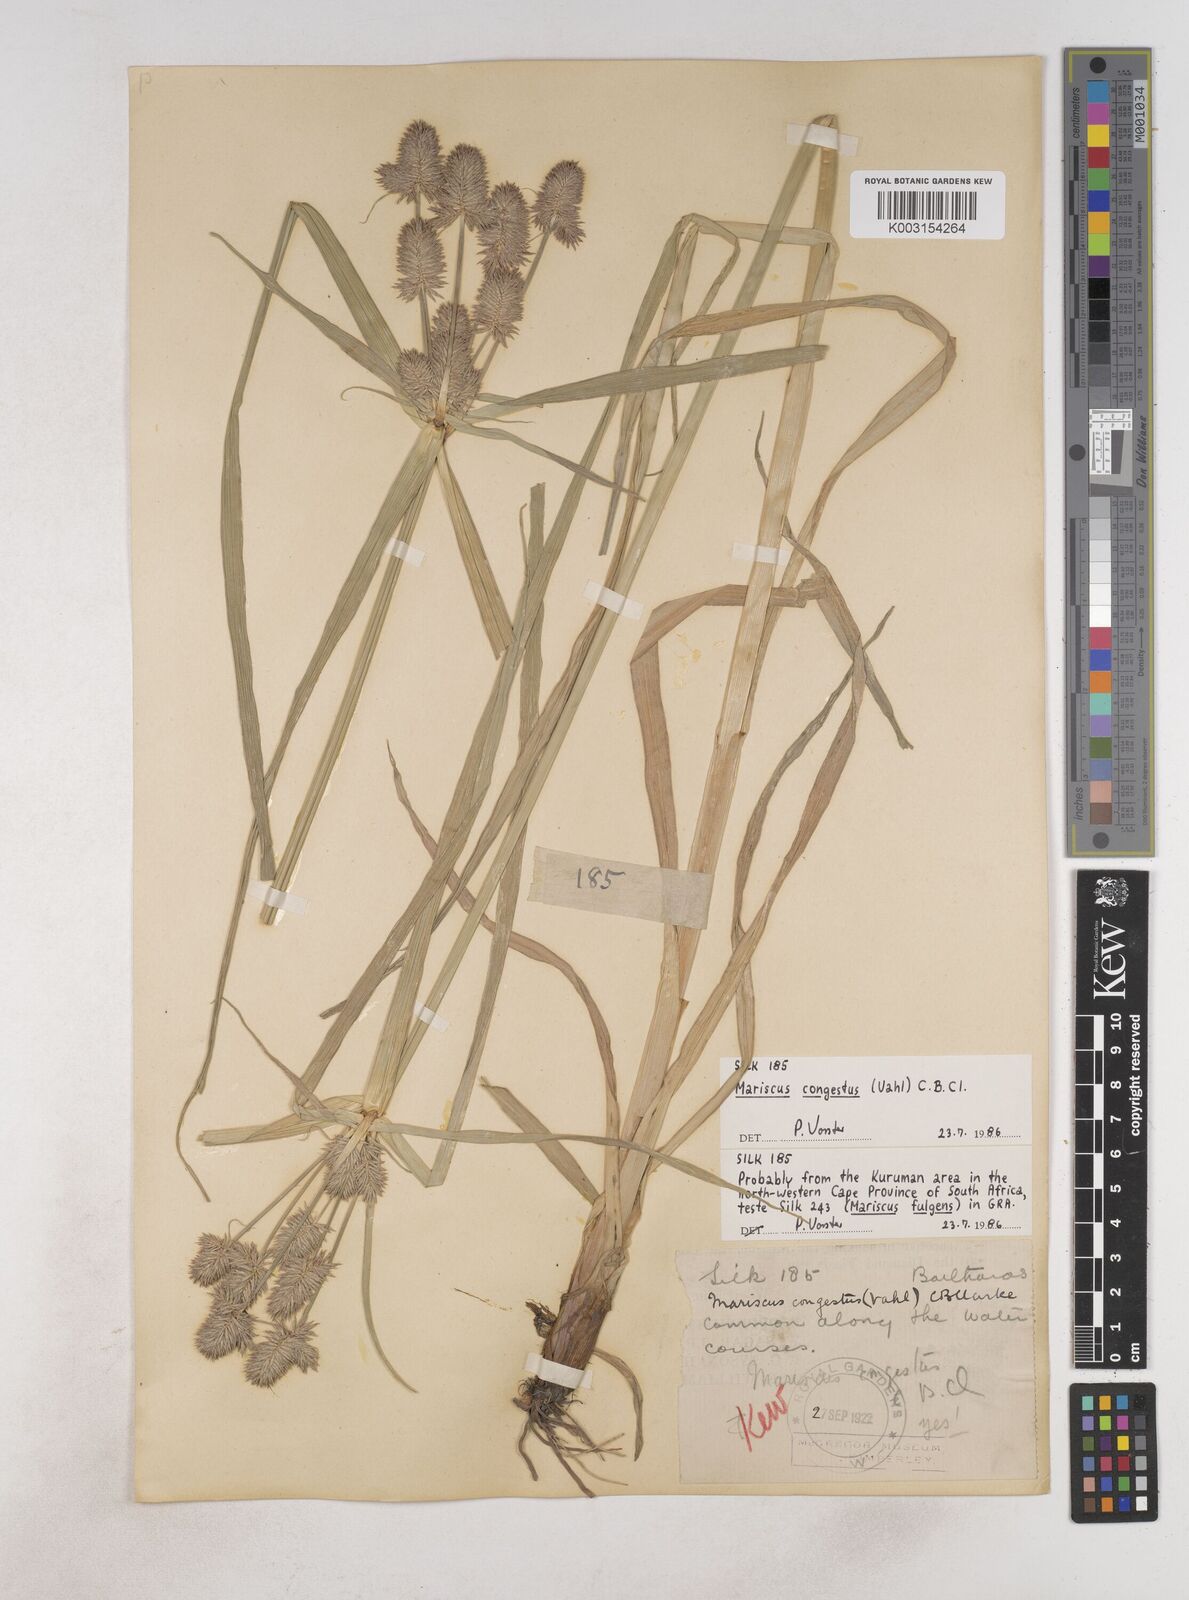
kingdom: Plantae
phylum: Tracheophyta
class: Liliopsida
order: Poales
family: Cyperaceae
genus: Cyperus
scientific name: Cyperus congestus
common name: Dense flat sedge
